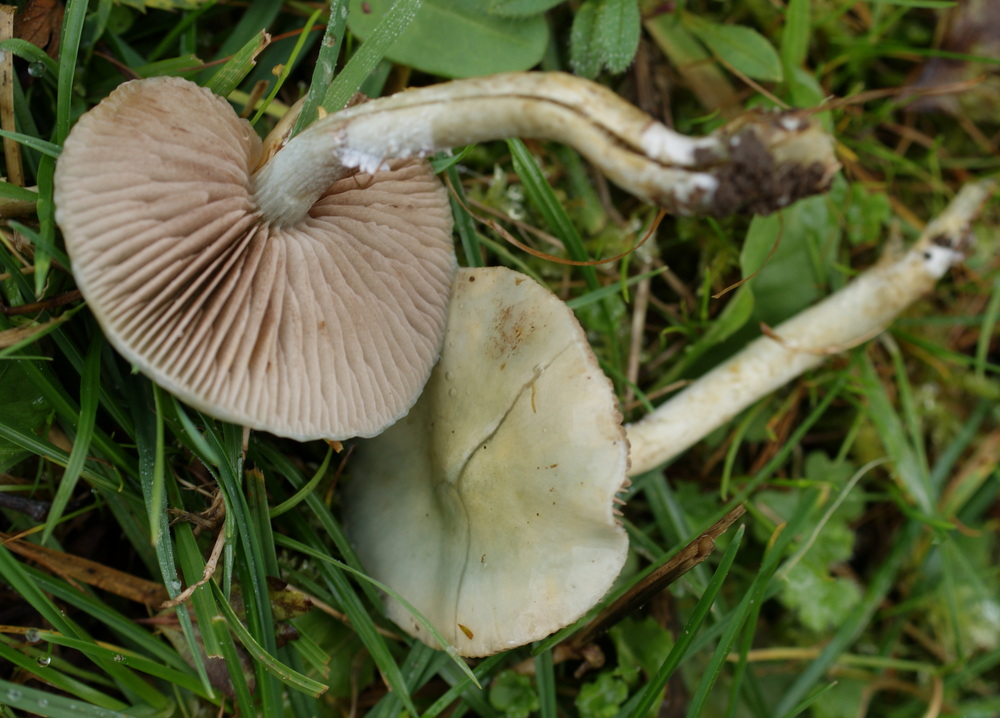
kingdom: Fungi
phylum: Basidiomycota
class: Agaricomycetes
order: Agaricales
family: Strophariaceae
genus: Stropharia
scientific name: Stropharia cyanea
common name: blågrøn bredblad
